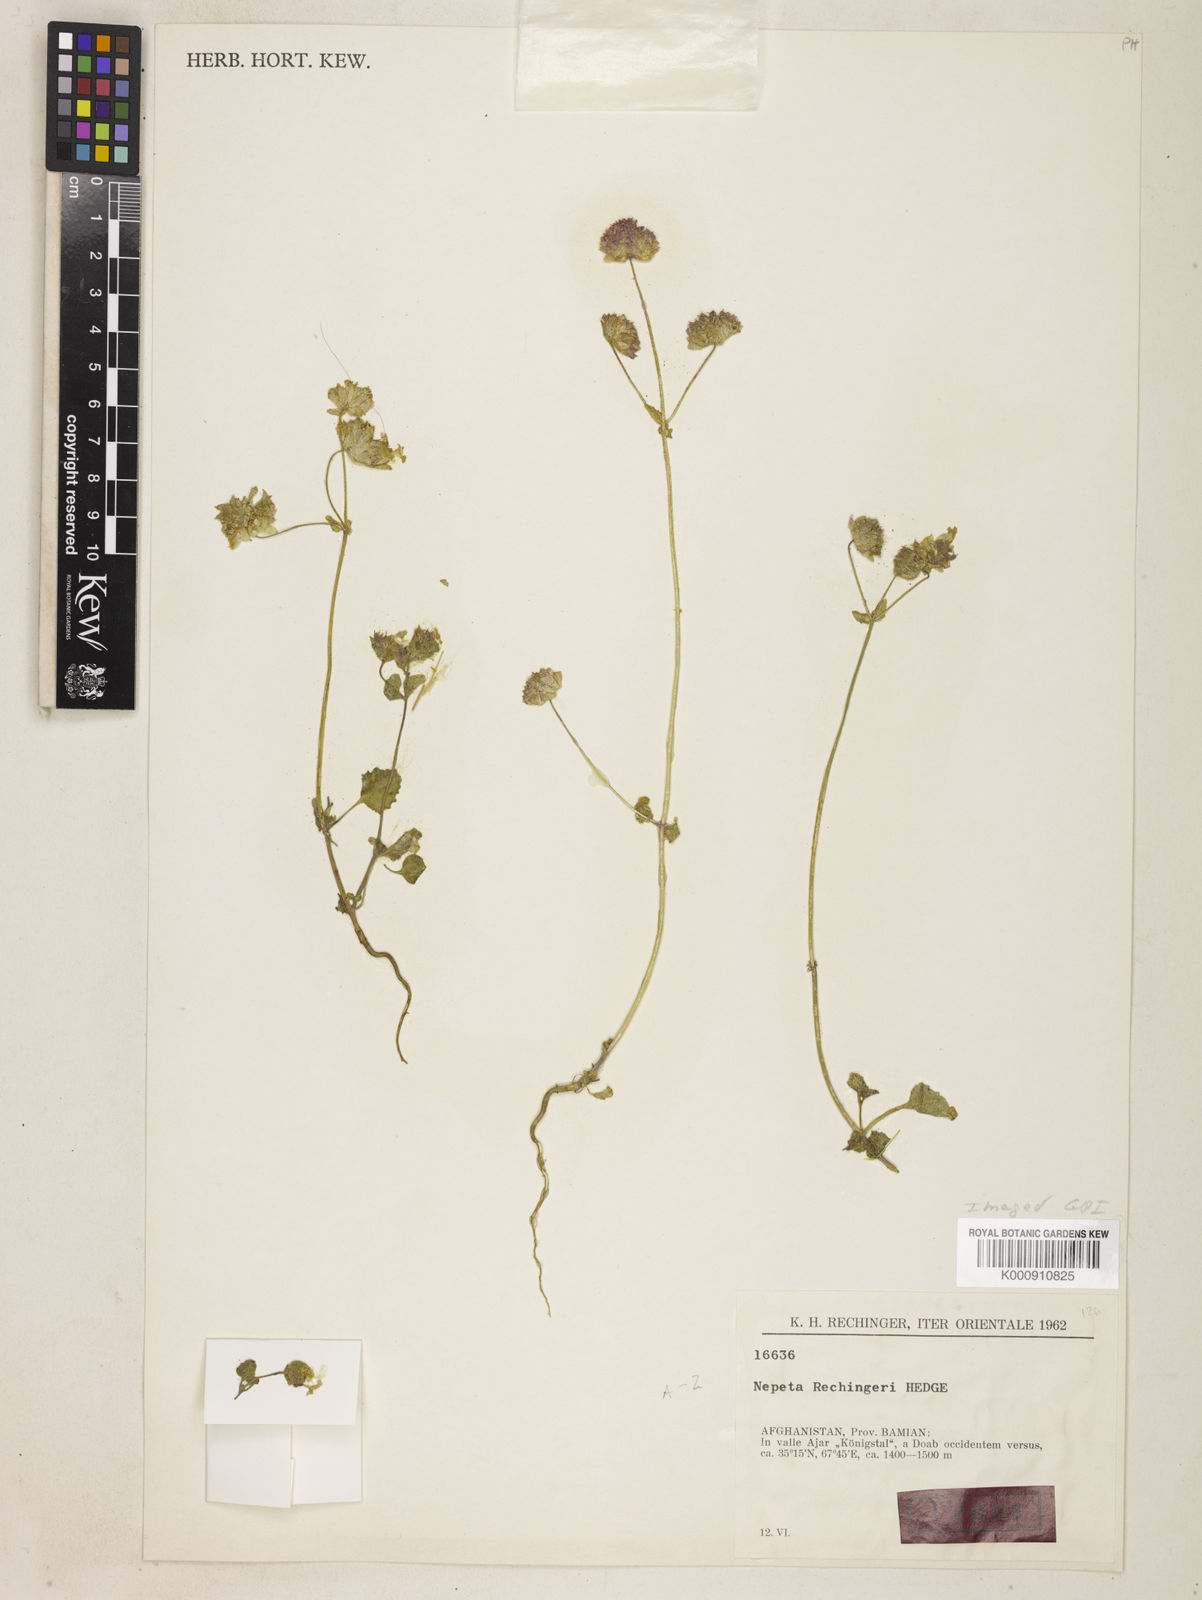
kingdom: Plantae
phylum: Tracheophyta
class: Magnoliopsida
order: Lamiales
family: Lamiaceae
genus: Nepeta
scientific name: Nepeta rechingeri
